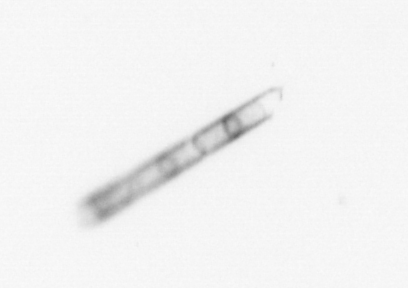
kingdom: Chromista
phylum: Ochrophyta
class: Bacillariophyceae
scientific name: Bacillariophyceae
